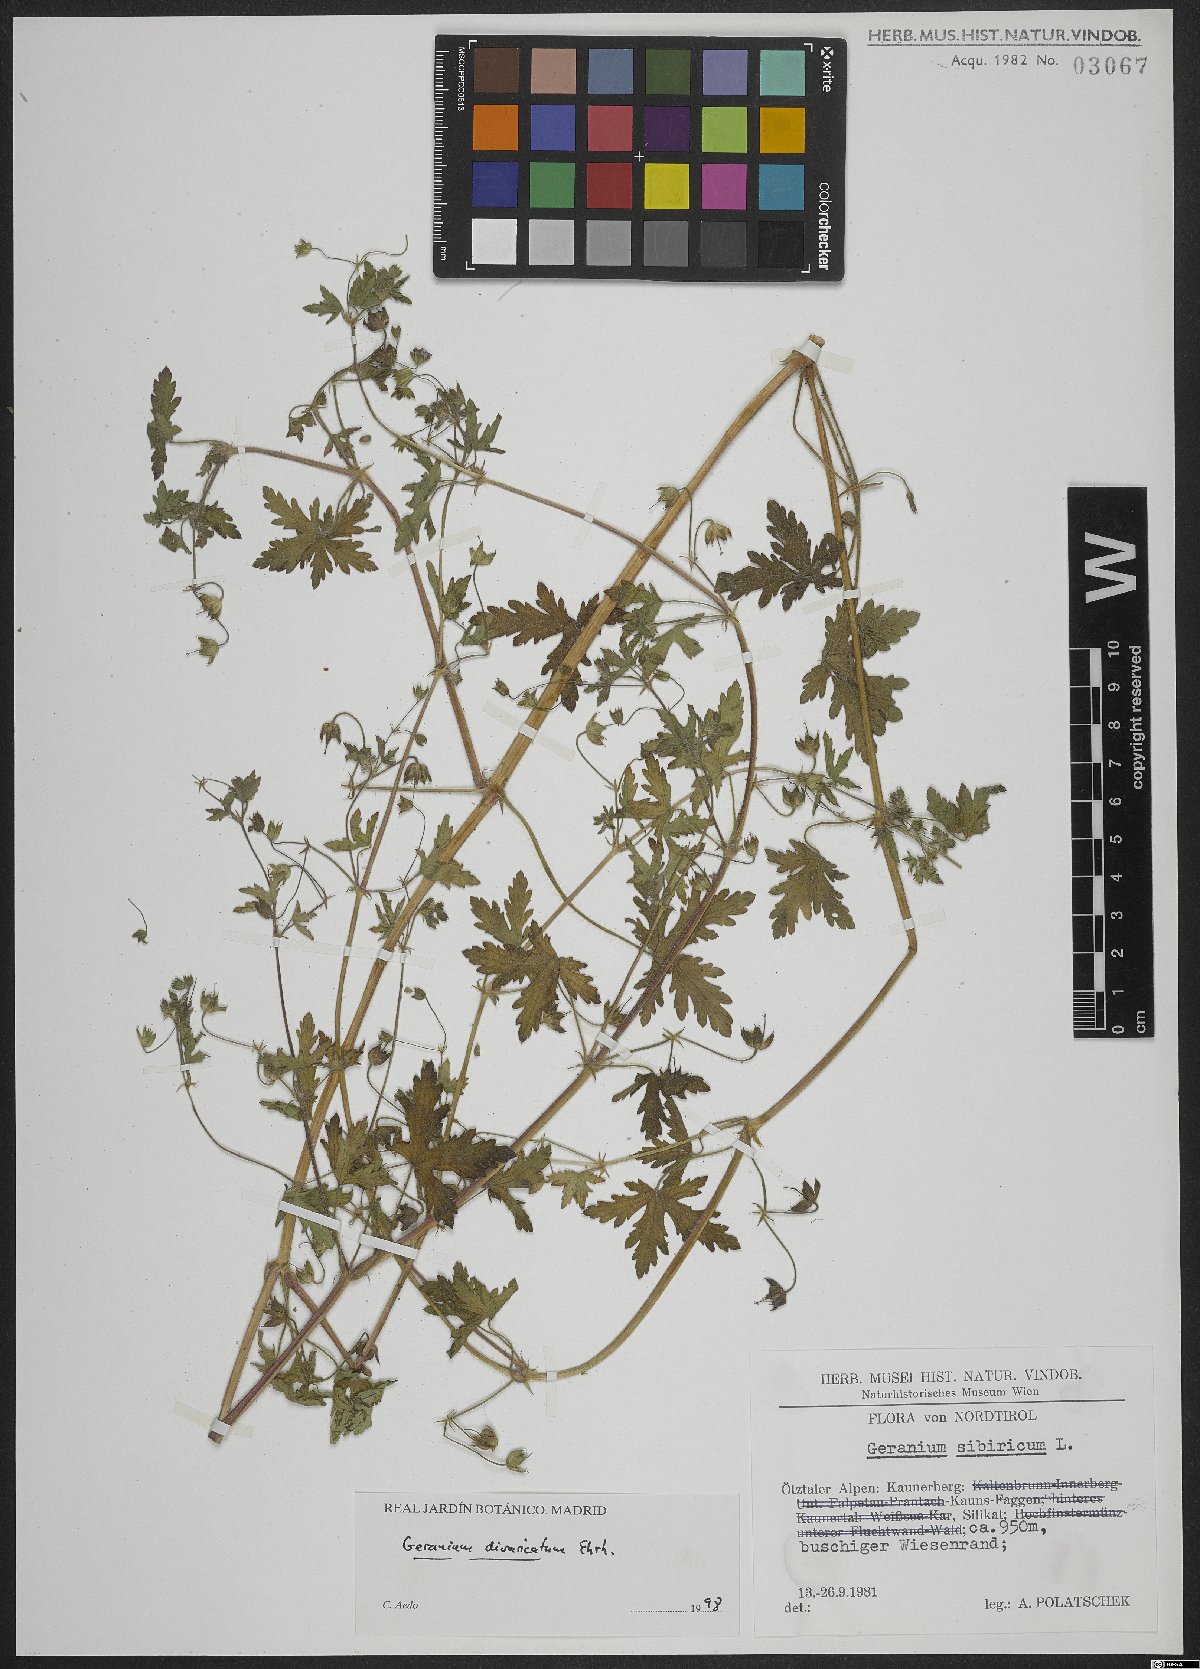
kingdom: Plantae
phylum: Tracheophyta
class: Magnoliopsida
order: Geraniales
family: Geraniaceae
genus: Geranium
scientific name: Geranium divaricatum
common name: Spreading crane's-bill
